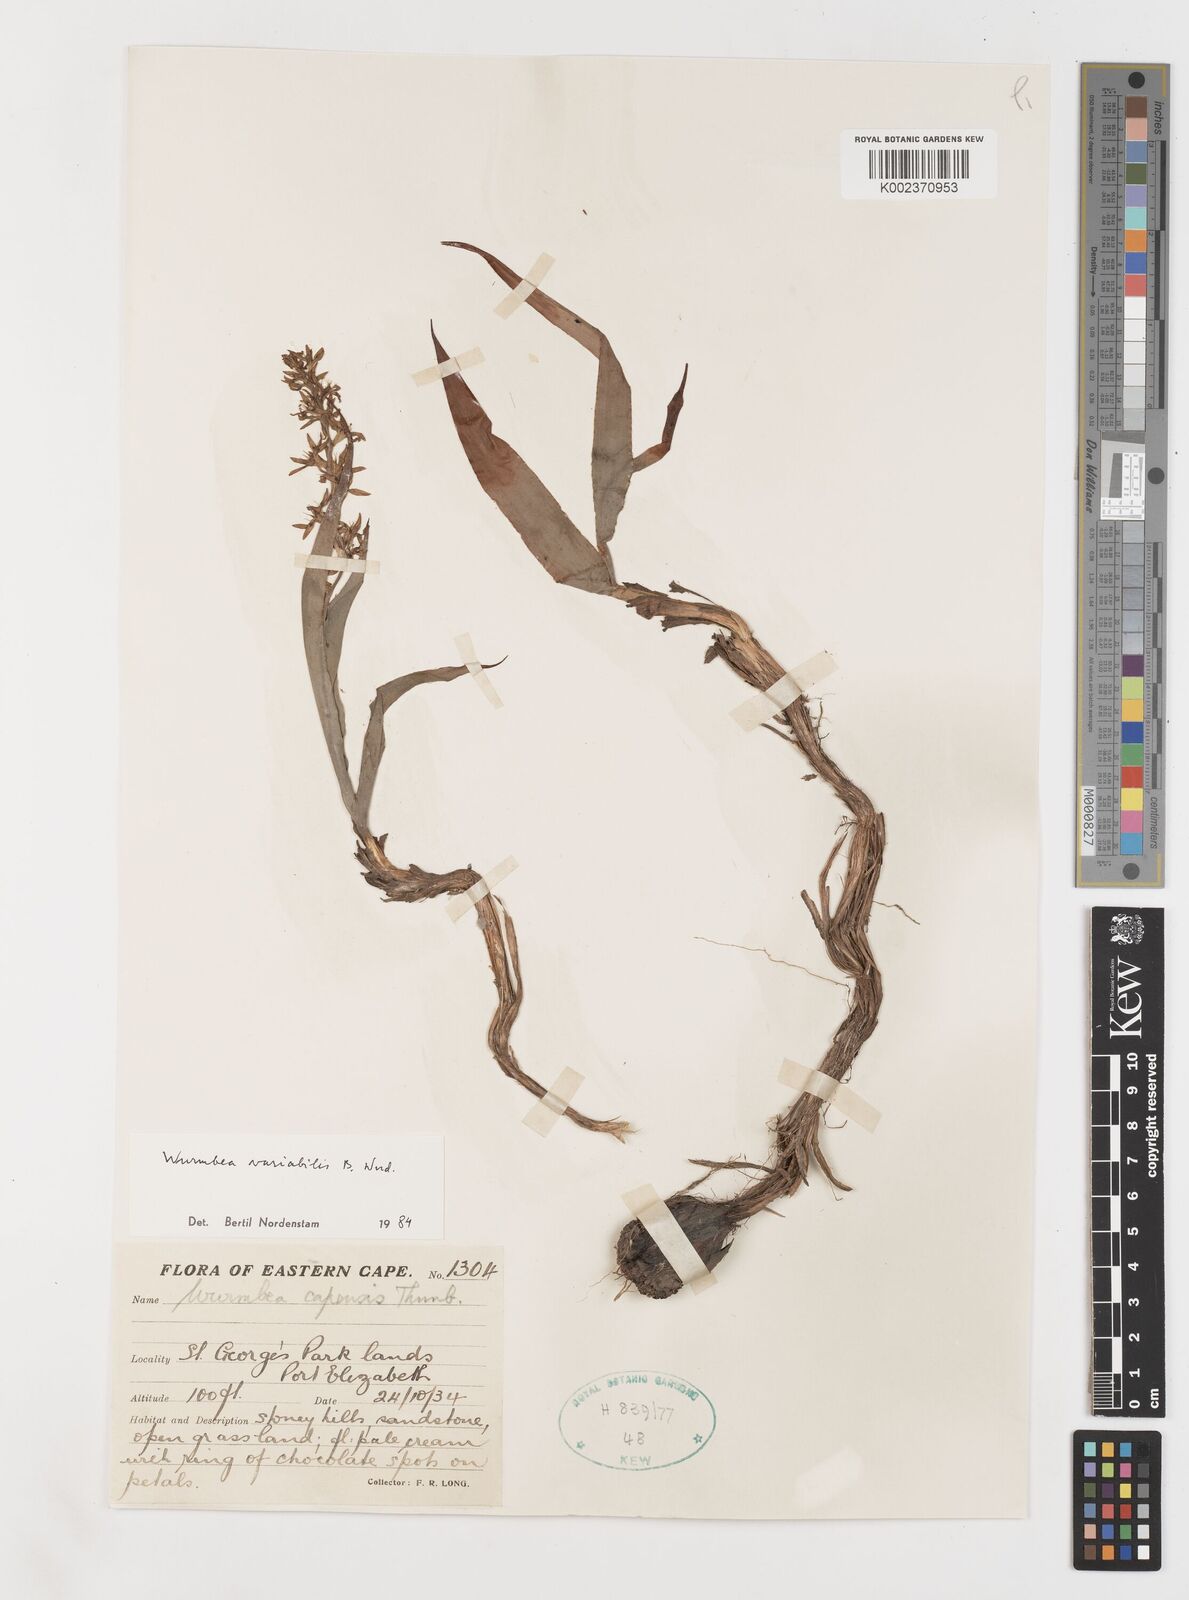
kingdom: Plantae
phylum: Tracheophyta
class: Liliopsida
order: Liliales
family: Colchicaceae
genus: Wurmbea
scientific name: Wurmbea variabilis
